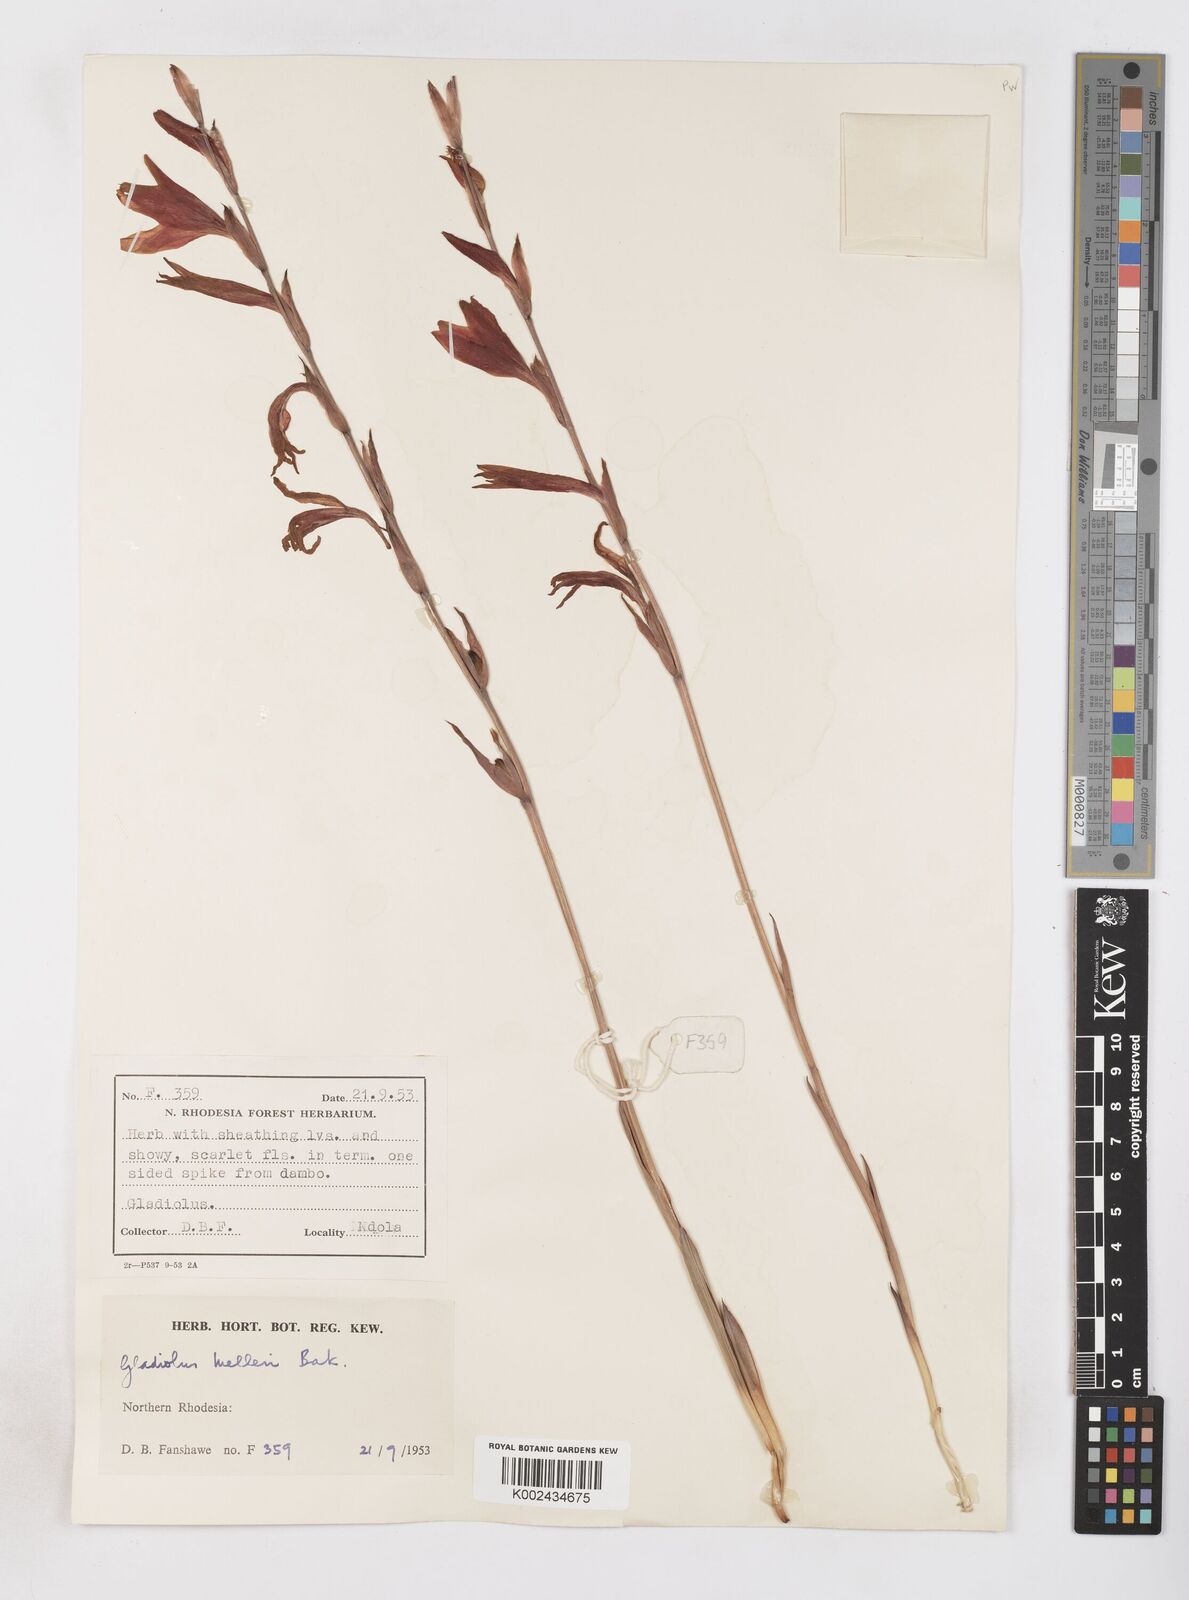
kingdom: Plantae
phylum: Tracheophyta
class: Liliopsida
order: Asparagales
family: Iridaceae
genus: Gladiolus
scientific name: Gladiolus melleri
